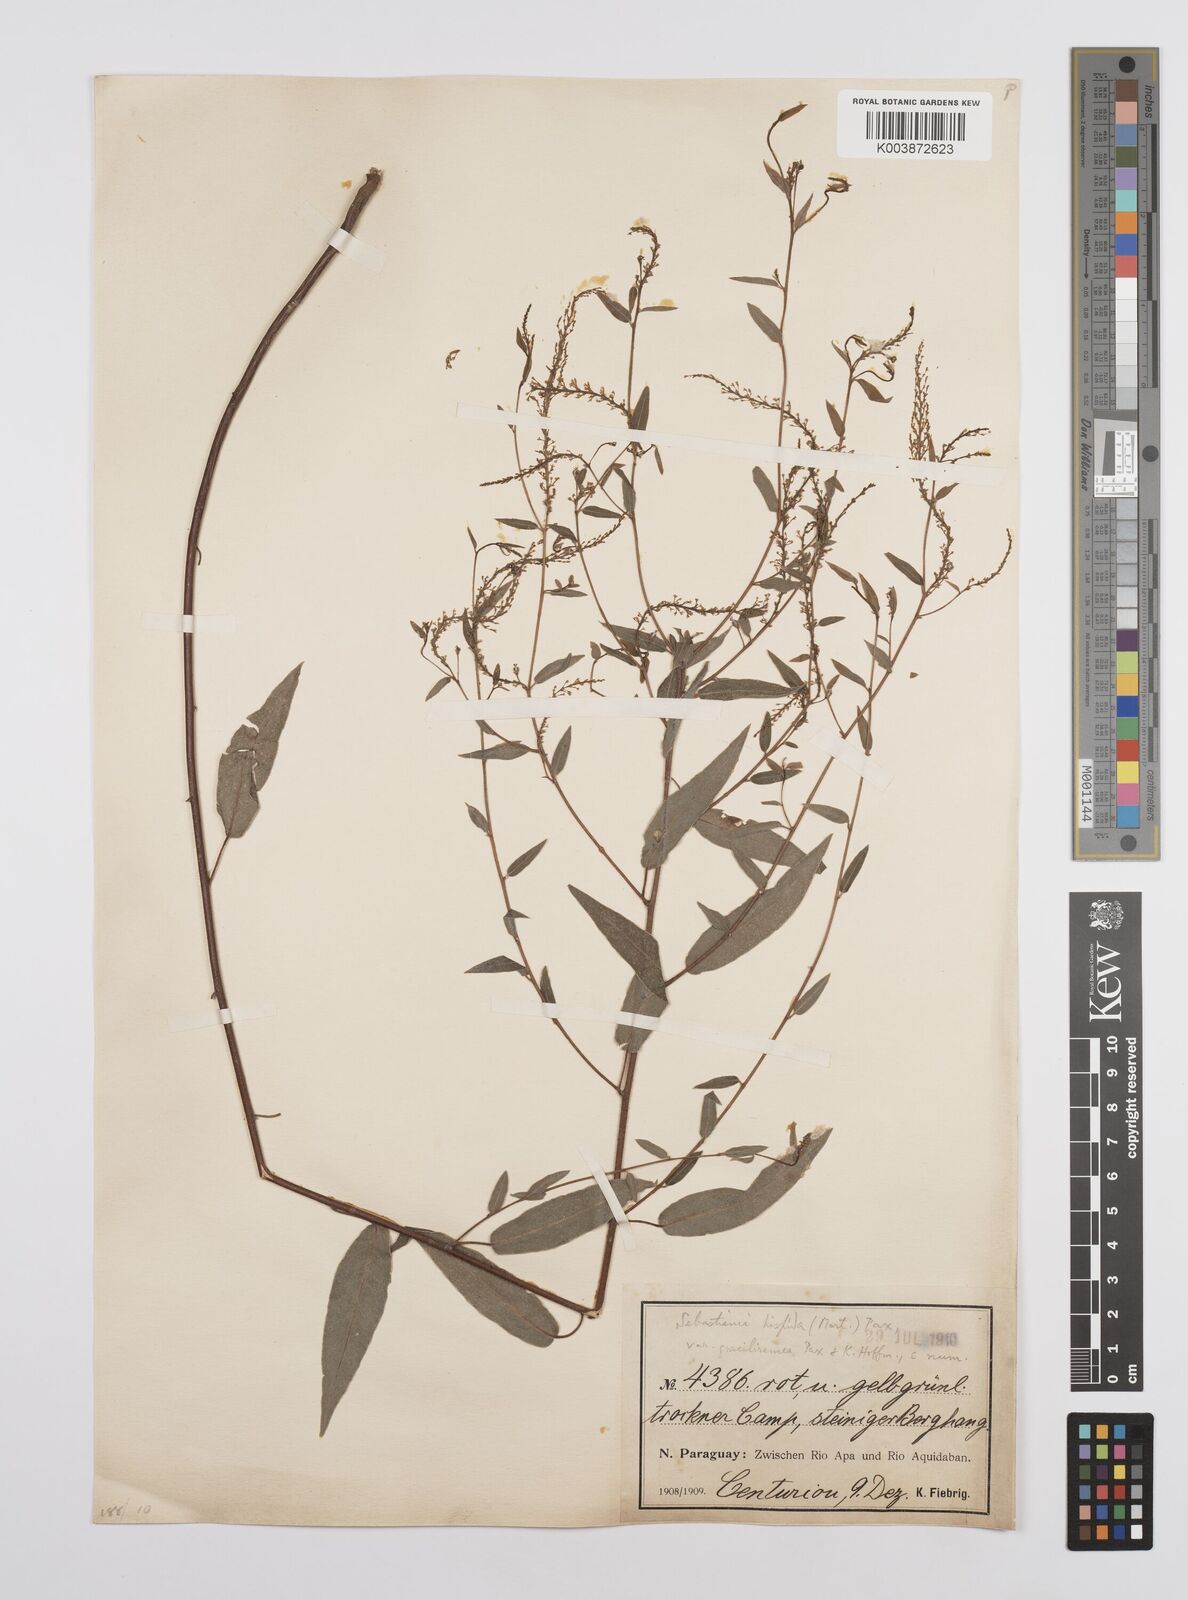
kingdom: Plantae
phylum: Tracheophyta
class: Magnoliopsida
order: Malpighiales
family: Euphorbiaceae
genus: Microstachys
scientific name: Microstachys hispida
